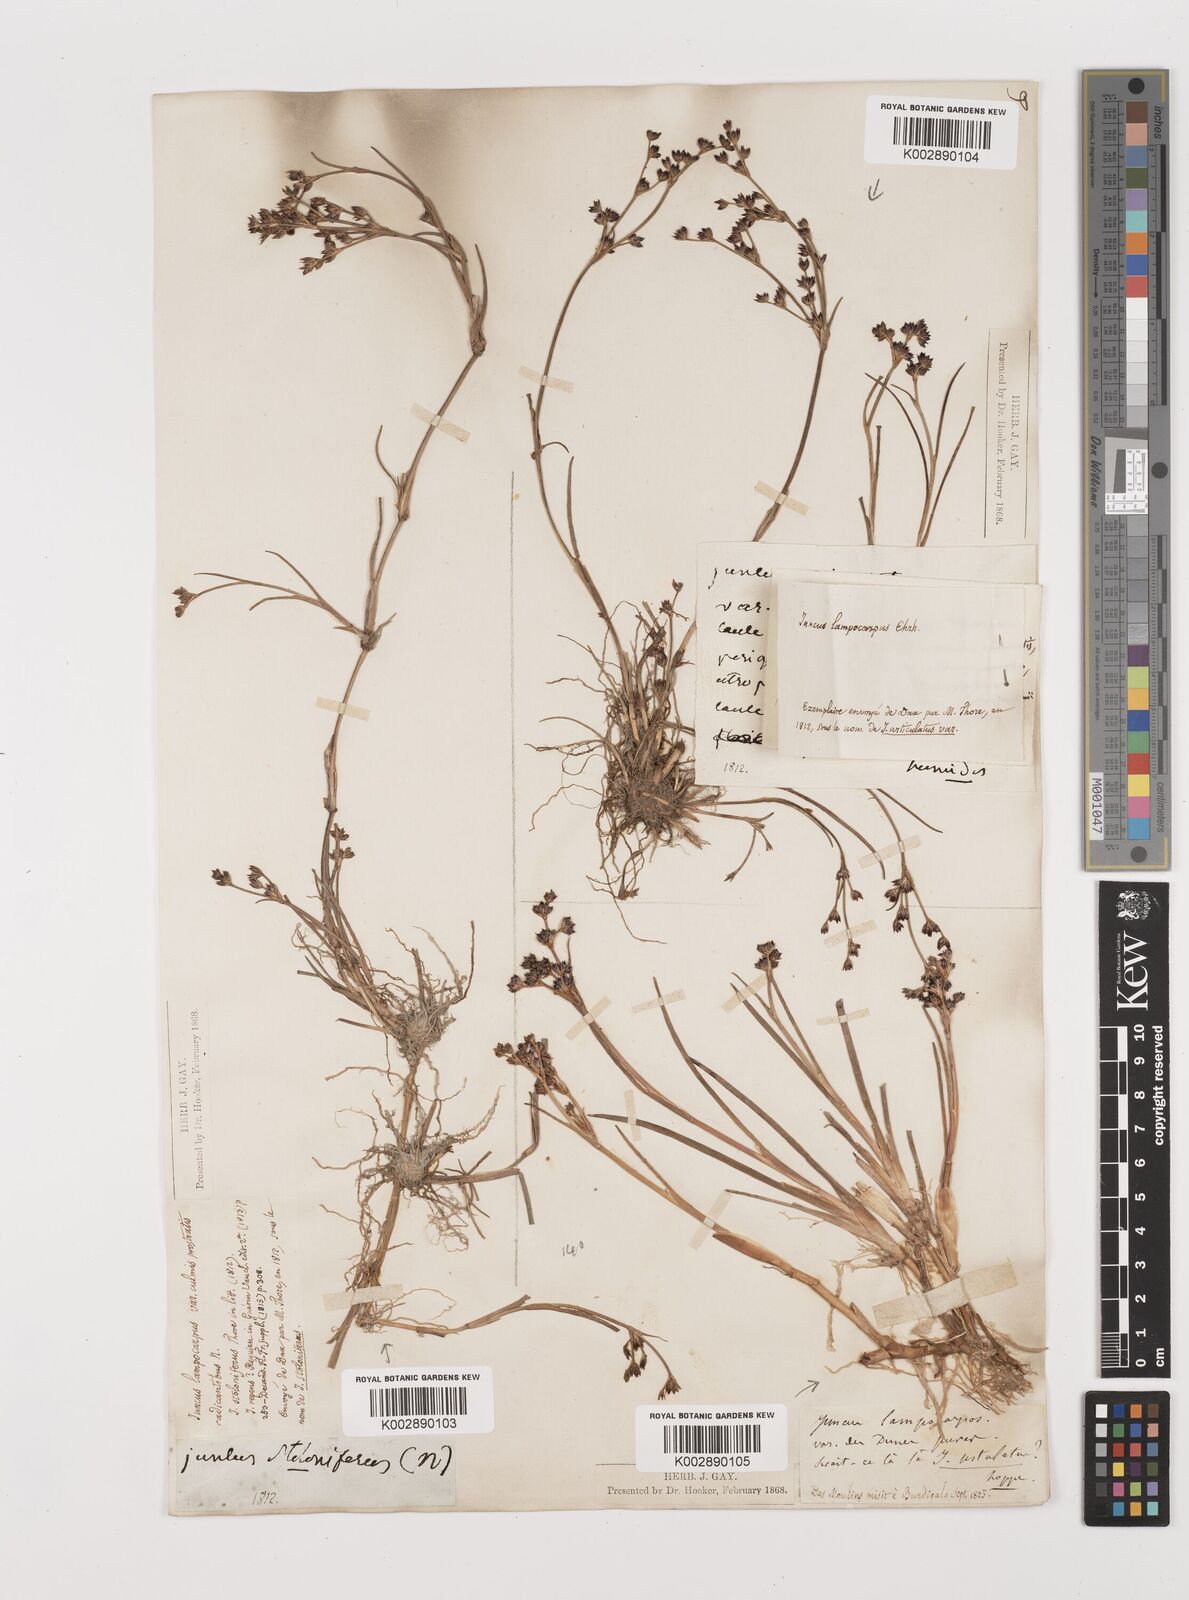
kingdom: Plantae
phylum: Tracheophyta
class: Liliopsida
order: Poales
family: Juncaceae
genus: Juncus
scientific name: Juncus articulatus
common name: Jointed rush
